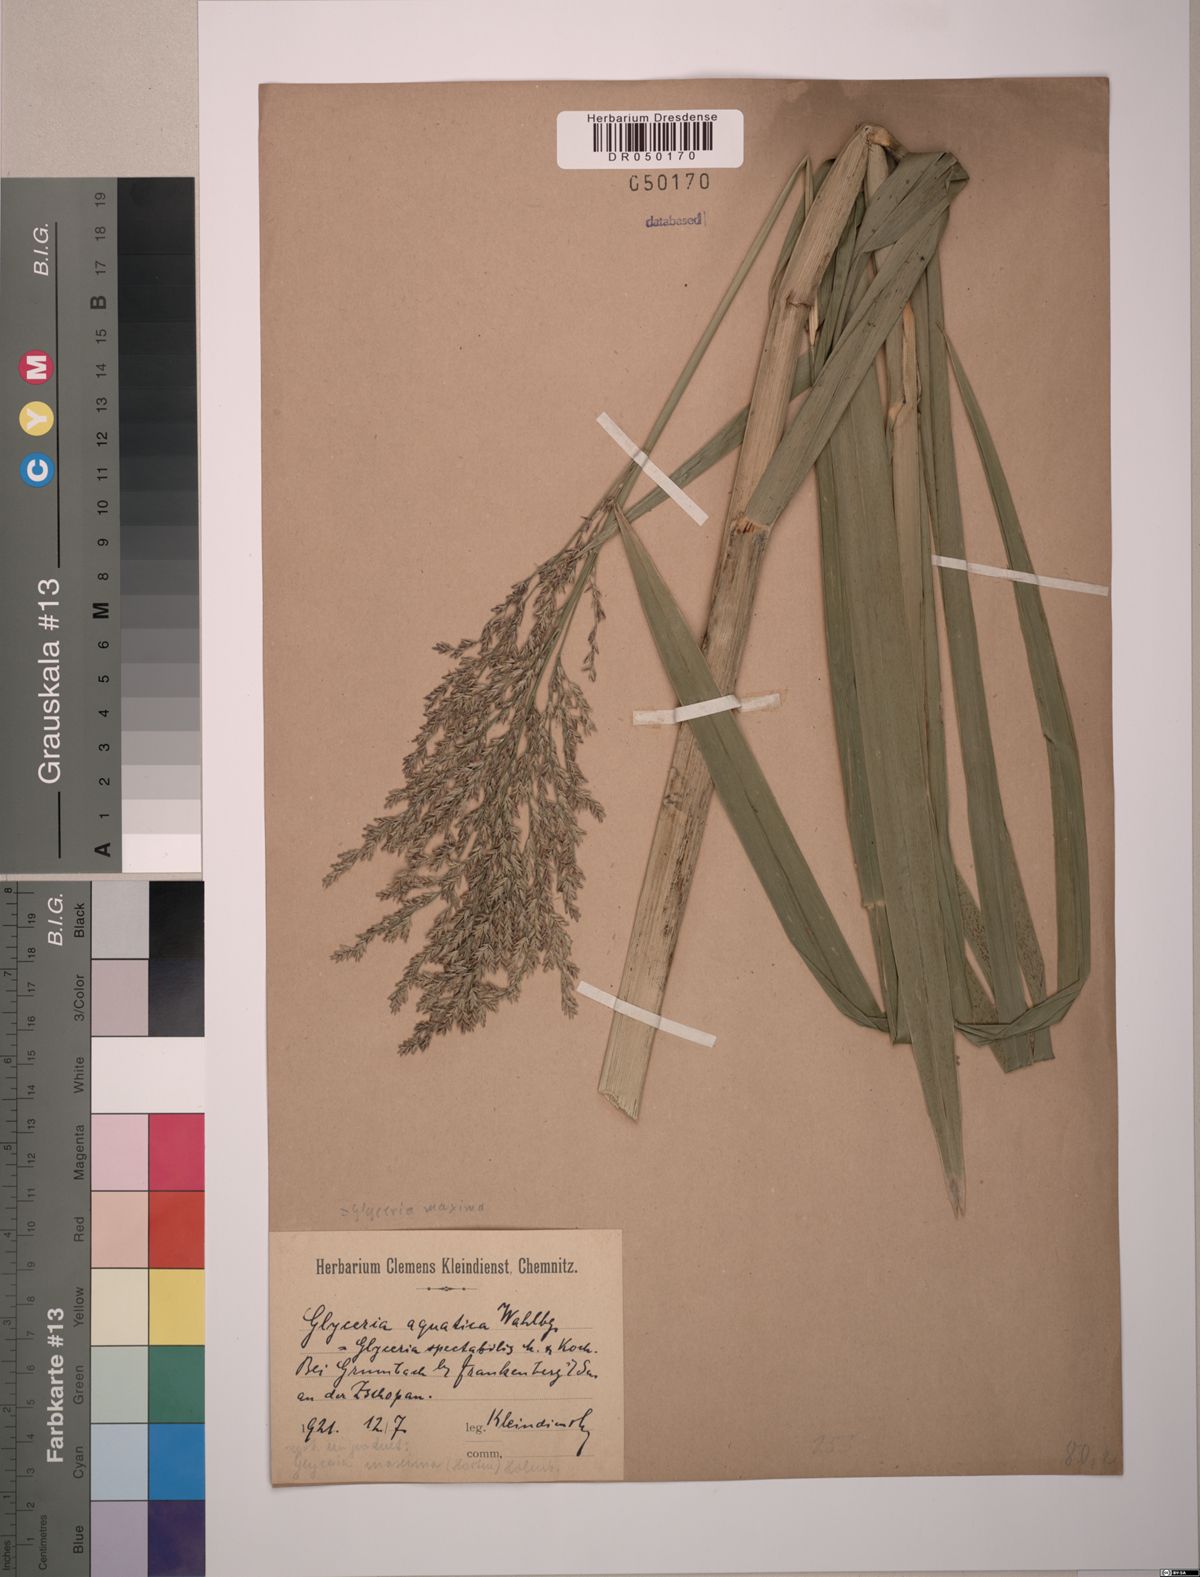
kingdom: Plantae
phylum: Tracheophyta
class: Liliopsida
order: Poales
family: Poaceae
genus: Glyceria
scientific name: Glyceria maxima
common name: Reed mannagrass
